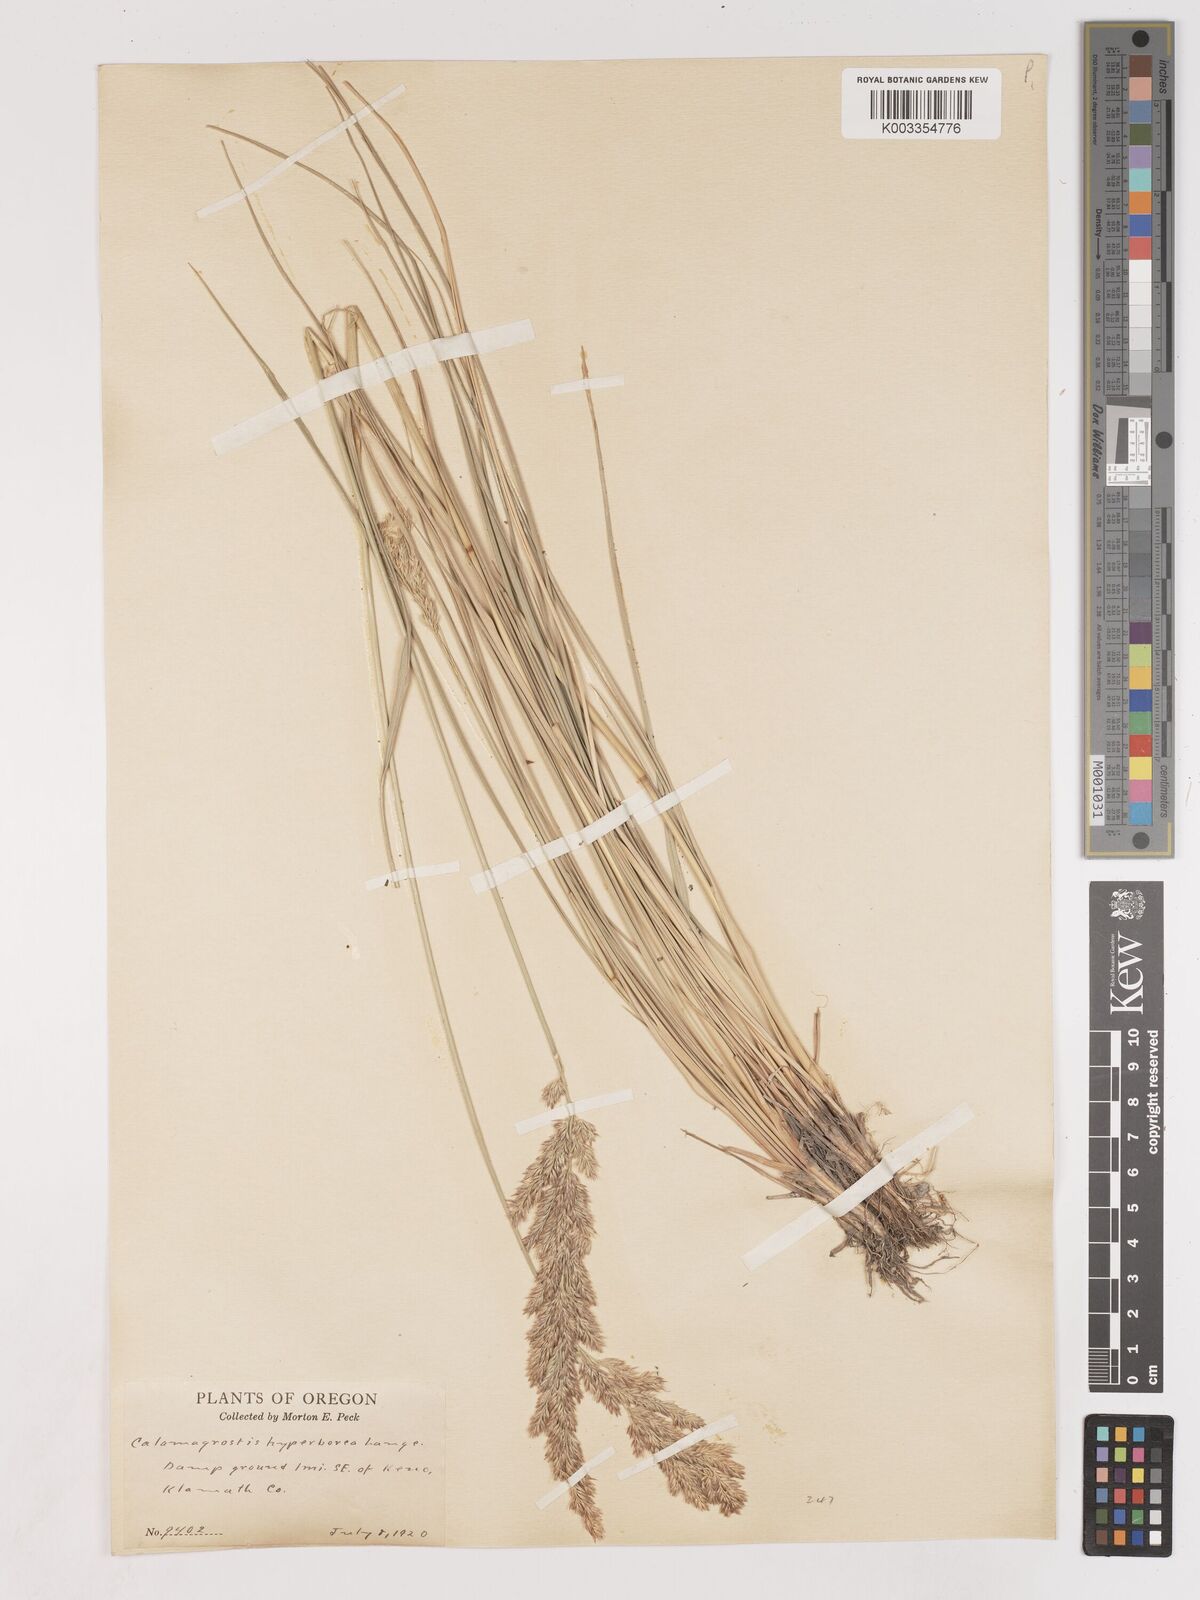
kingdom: Plantae
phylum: Tracheophyta
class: Liliopsida
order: Poales
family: Poaceae
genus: Cinnagrostis
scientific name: Cinnagrostis recta
